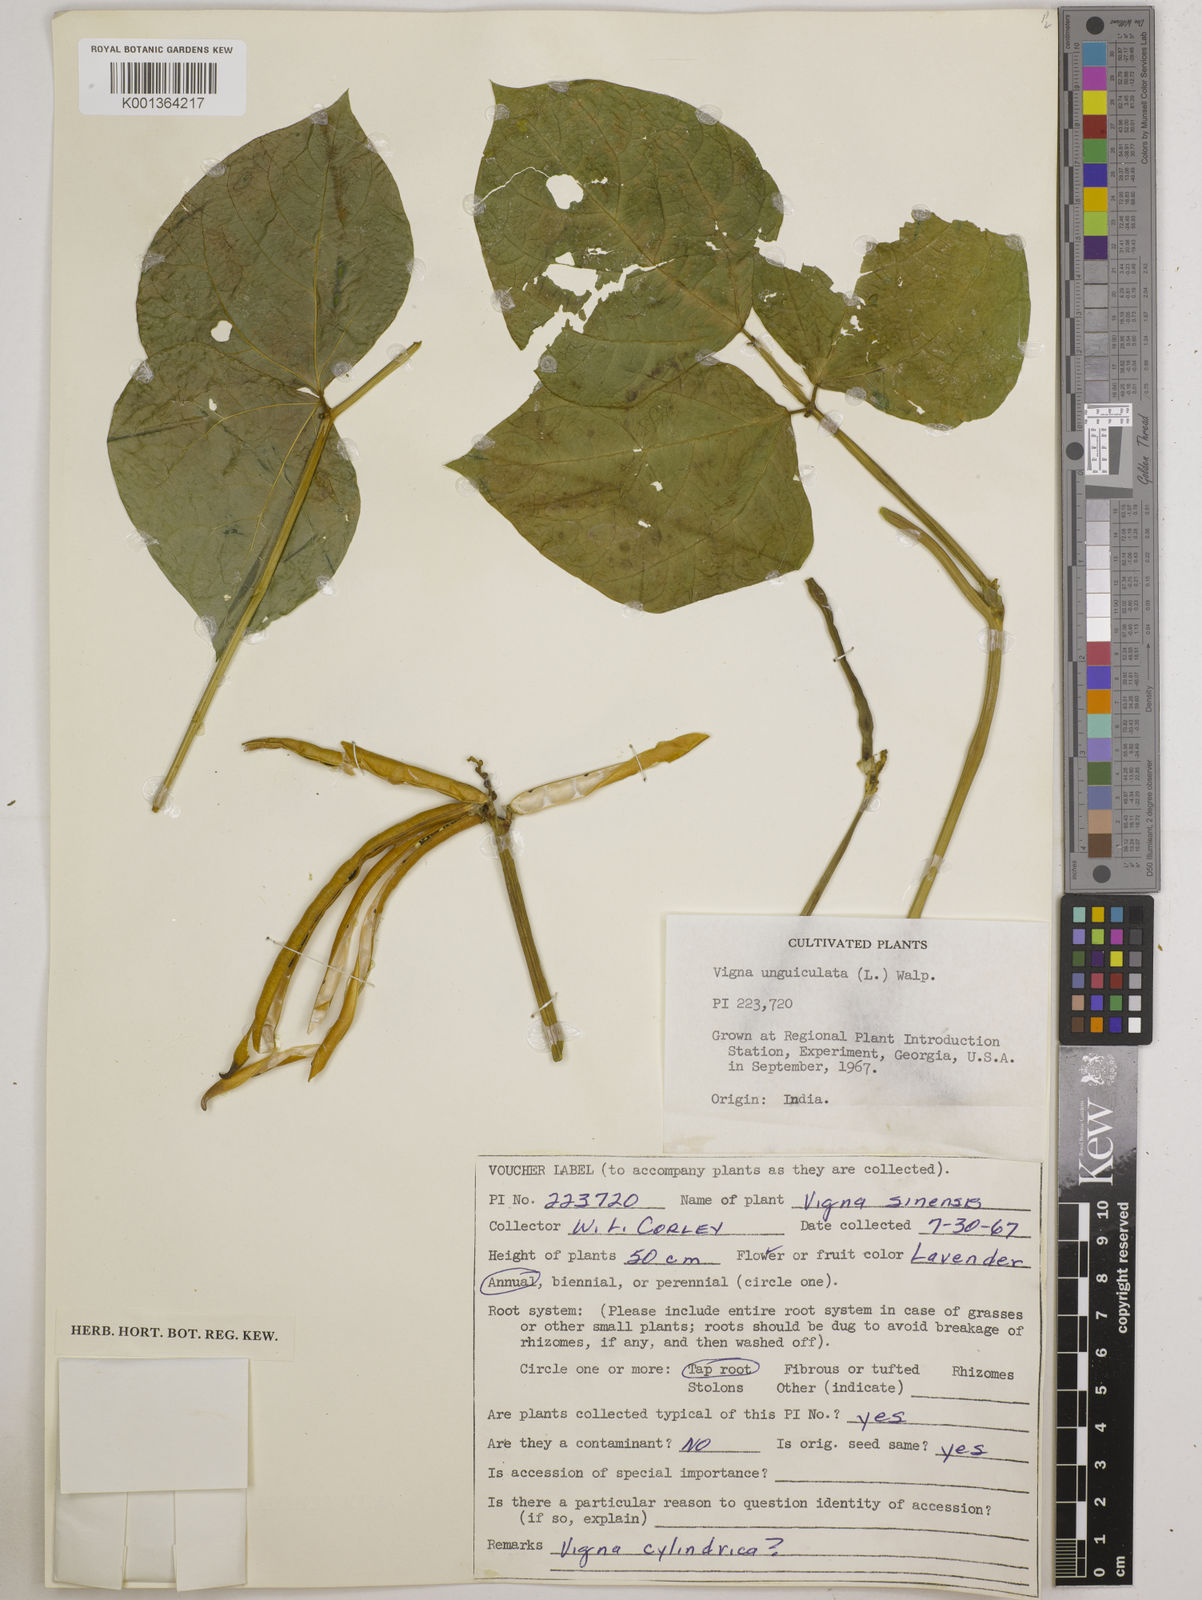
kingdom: Plantae
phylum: Tracheophyta
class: Magnoliopsida
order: Fabales
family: Fabaceae
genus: Vigna
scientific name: Vigna
